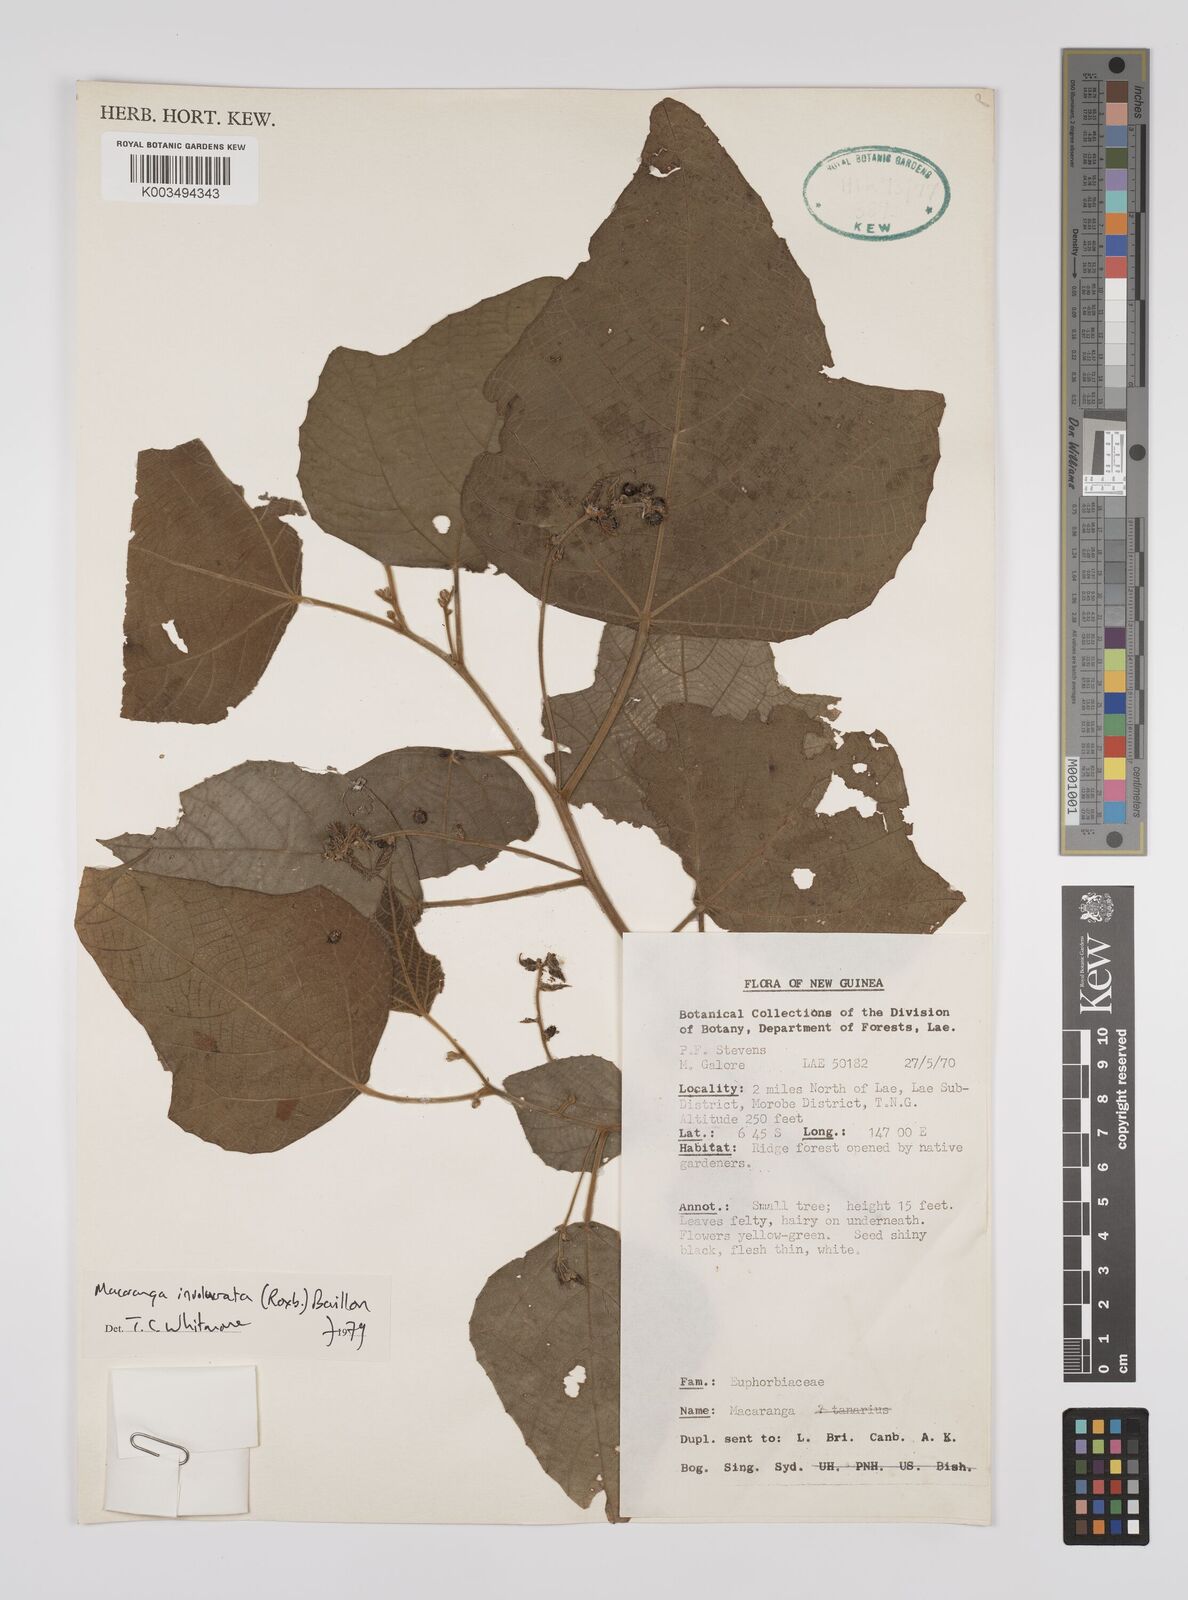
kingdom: Plantae
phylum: Tracheophyta
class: Magnoliopsida
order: Malpighiales
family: Euphorbiaceae
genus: Macaranga
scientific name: Macaranga involucrata
